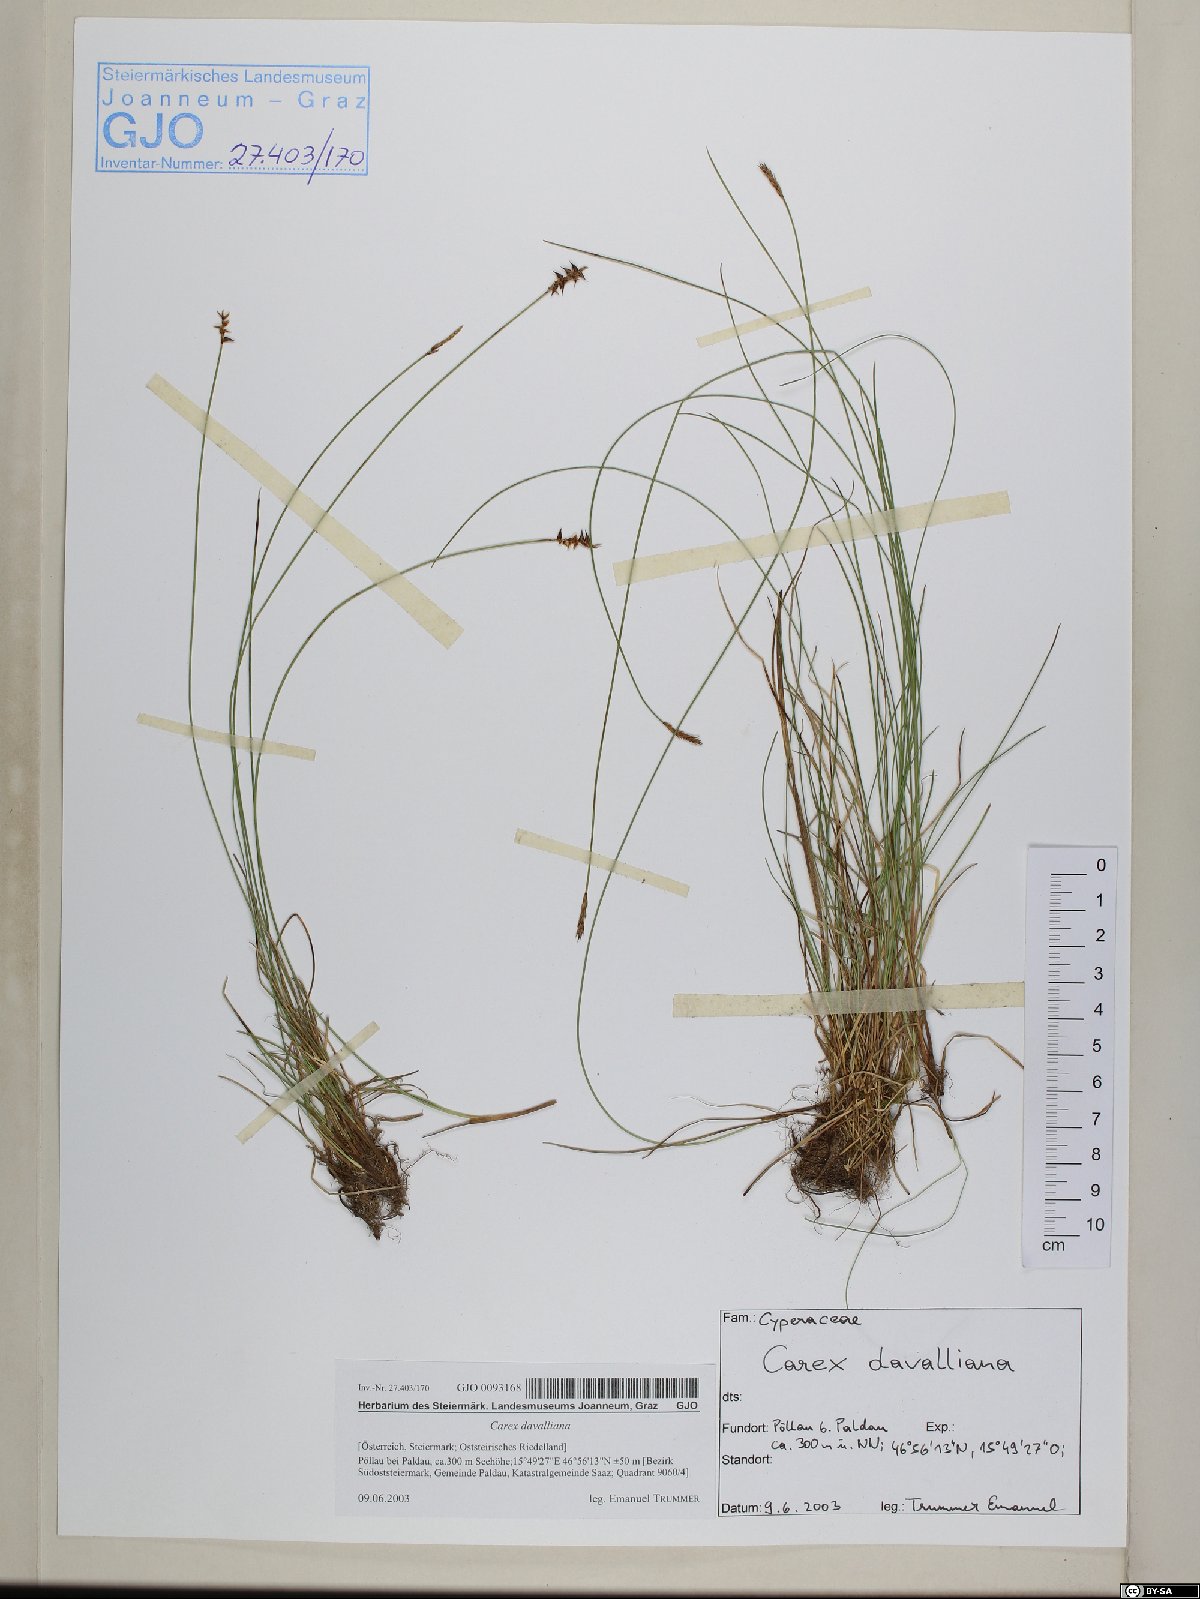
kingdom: Plantae
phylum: Tracheophyta
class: Liliopsida
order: Poales
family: Cyperaceae
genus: Carex
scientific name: Carex davalliana
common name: Davall's sedge
